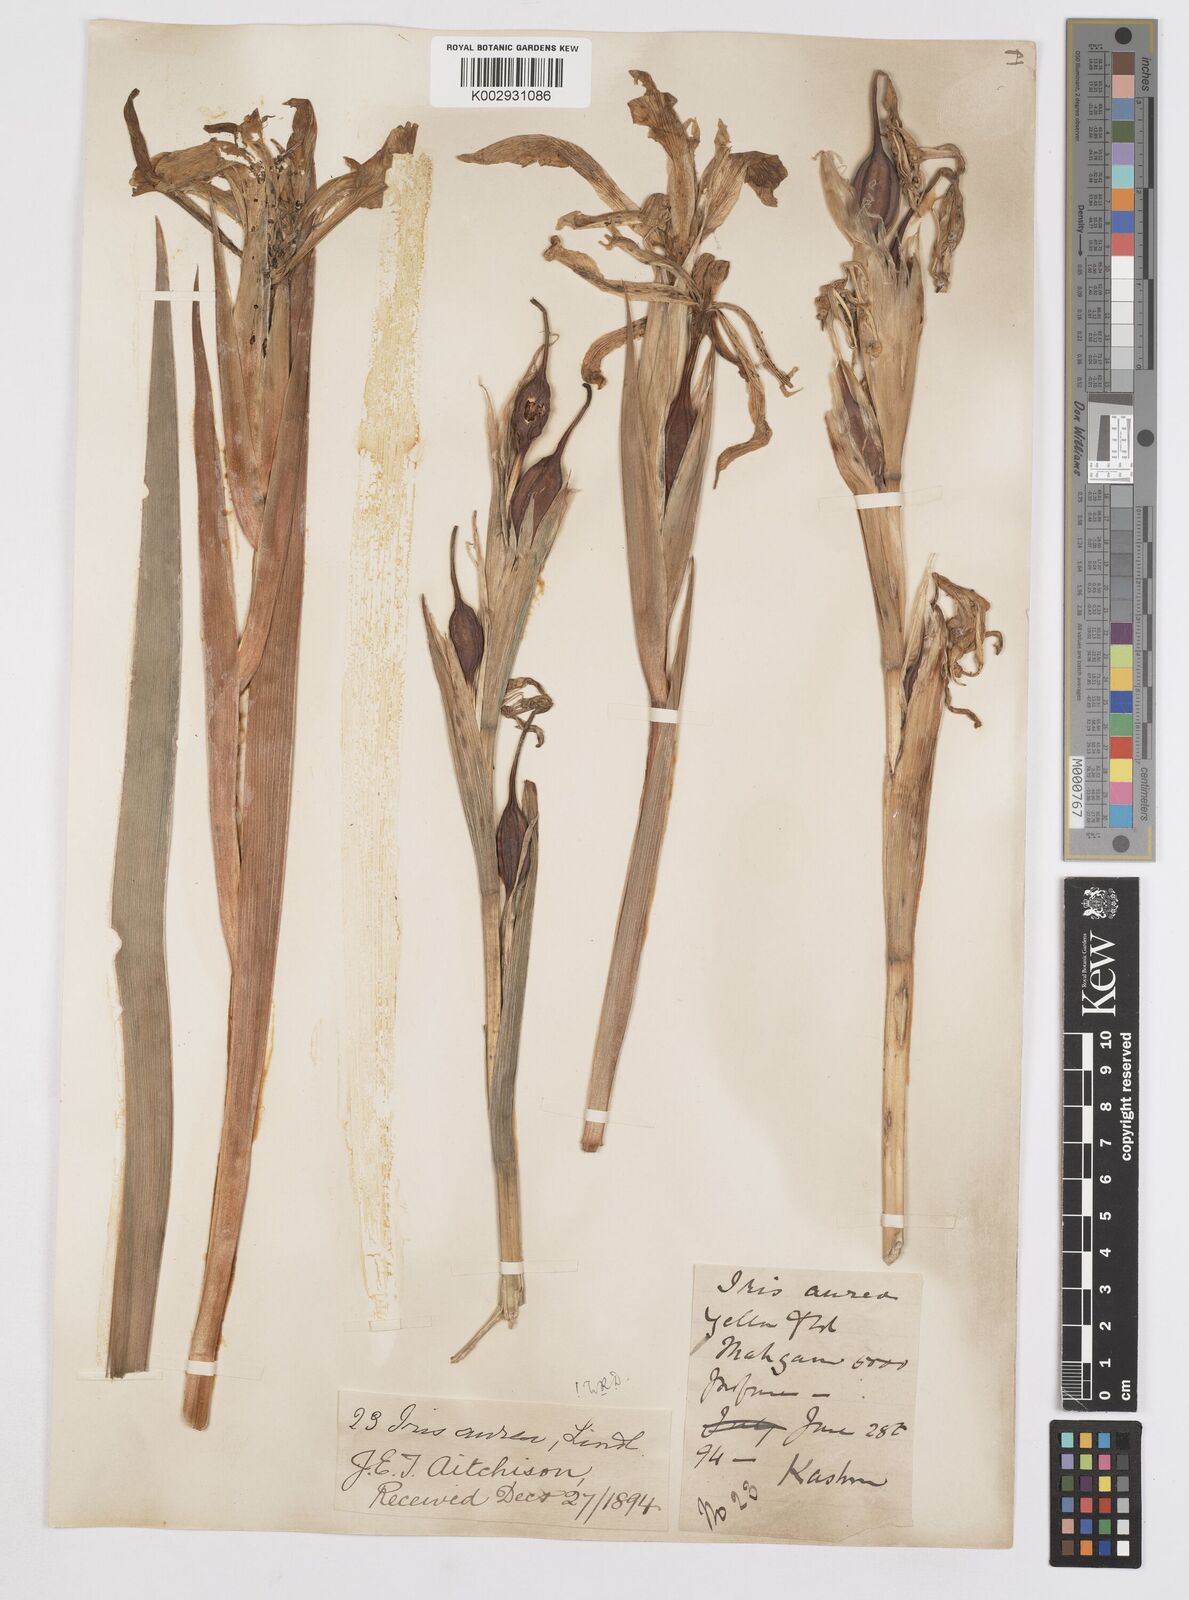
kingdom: Plantae
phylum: Tracheophyta
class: Liliopsida
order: Asparagales
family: Iridaceae
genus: Iris
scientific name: Iris crocea
